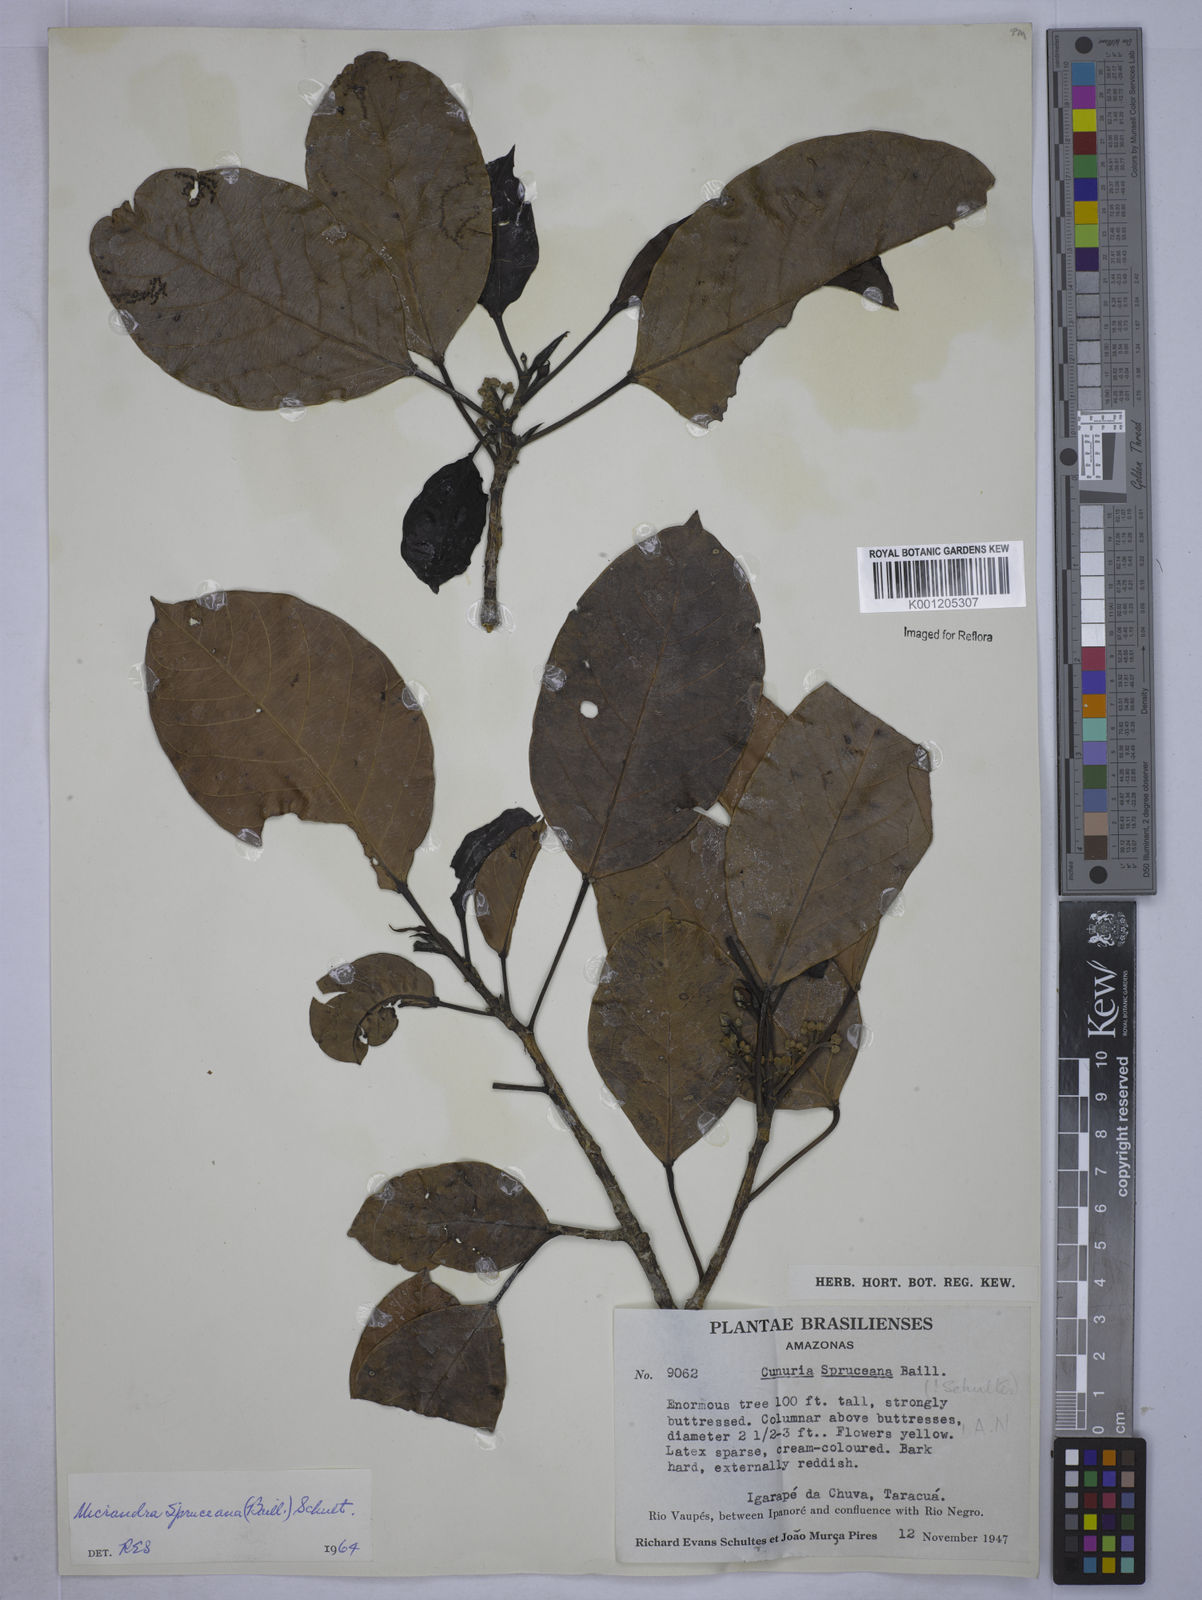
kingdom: Plantae
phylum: Tracheophyta
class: Magnoliopsida
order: Malpighiales
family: Euphorbiaceae
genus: Micrandra
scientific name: Micrandra spruceana
